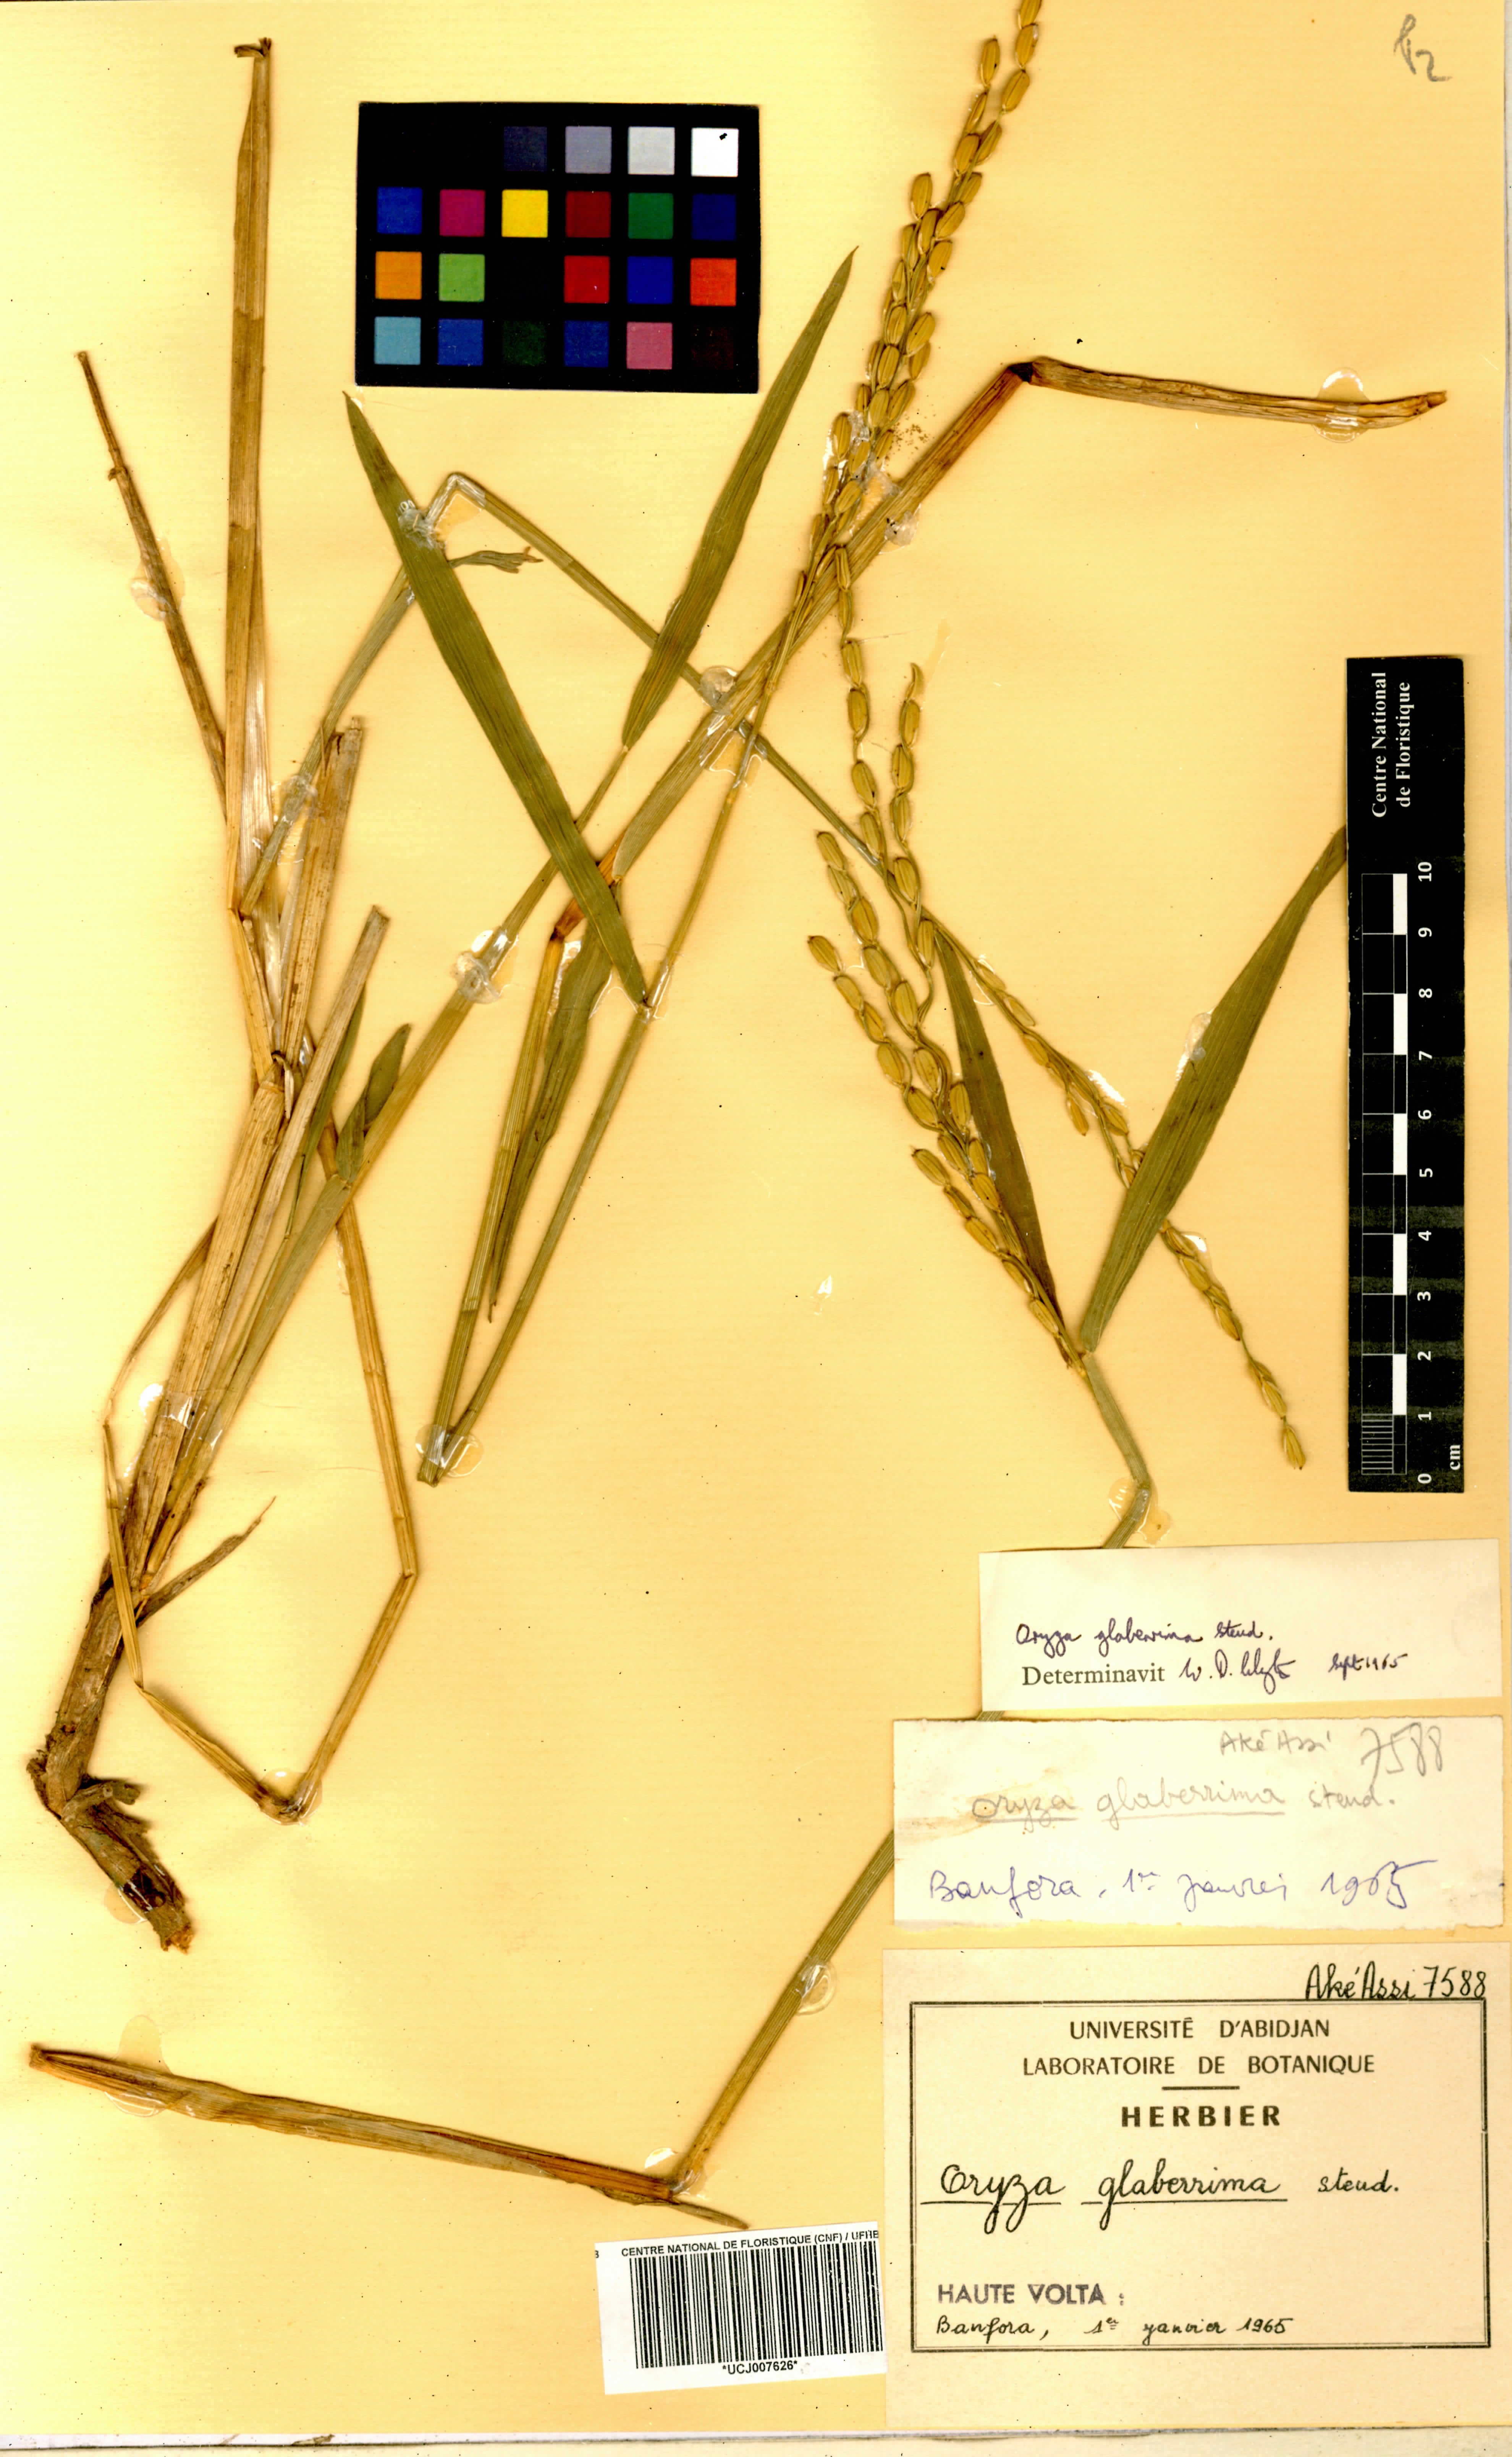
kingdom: Plantae
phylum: Tracheophyta
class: Liliopsida
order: Poales
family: Poaceae
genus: Oryza
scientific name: Oryza glaberrima
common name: African rice
